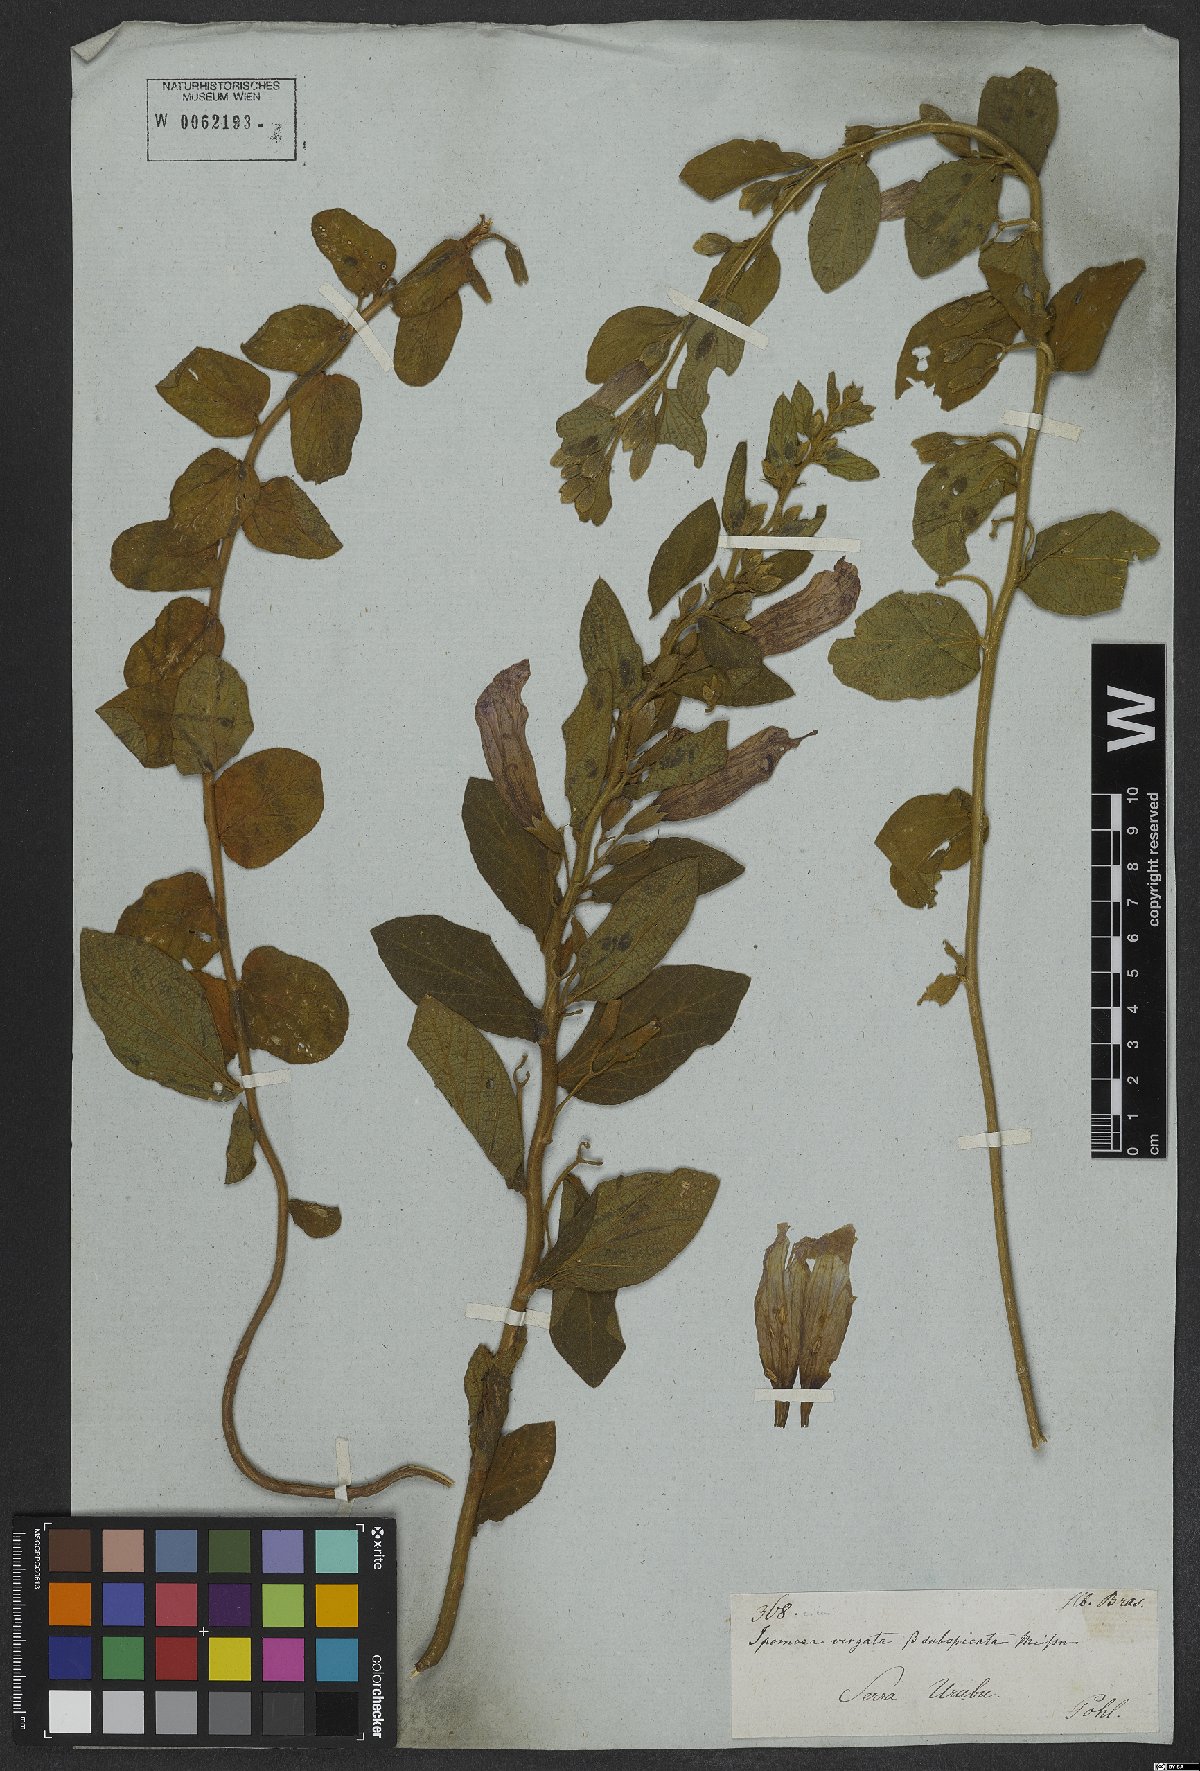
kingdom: Plantae
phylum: Tracheophyta
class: Magnoliopsida
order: Solanales
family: Convolvulaceae
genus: Ipomoea
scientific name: Ipomoea virgata
